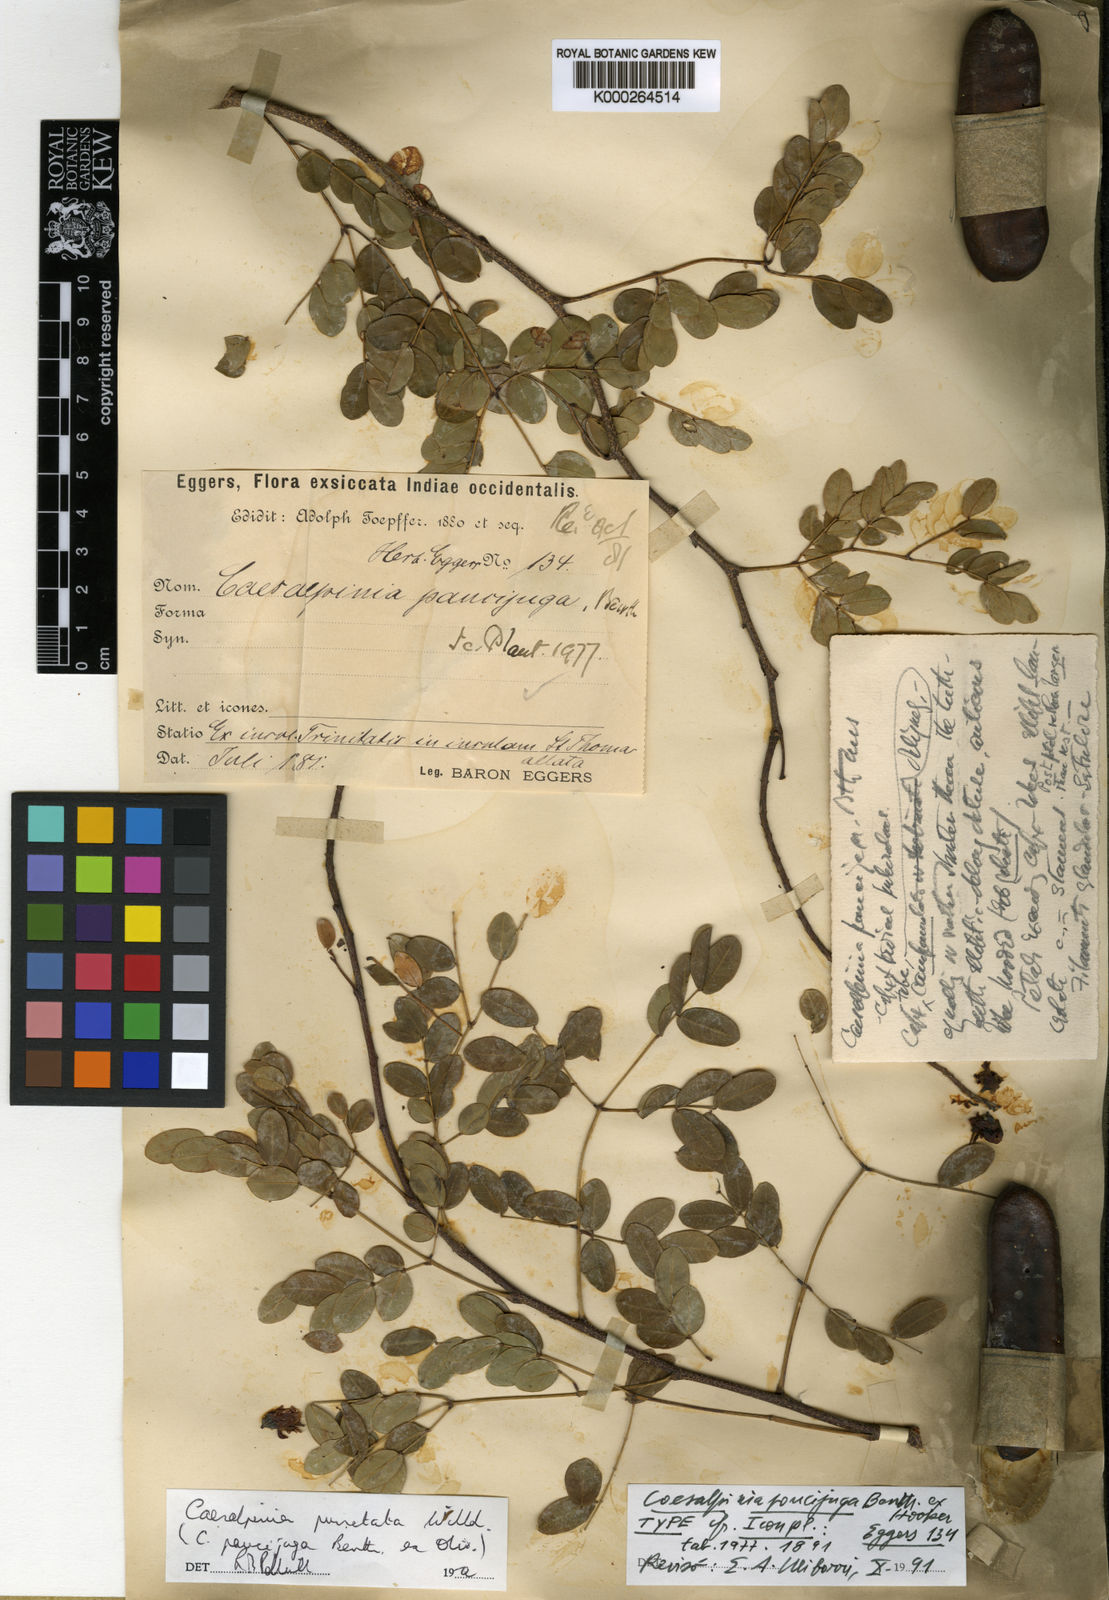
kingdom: Plantae
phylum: Tracheophyta
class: Magnoliopsida
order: Fabales
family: Fabaceae
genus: Caesalpinia
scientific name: Caesalpinia
